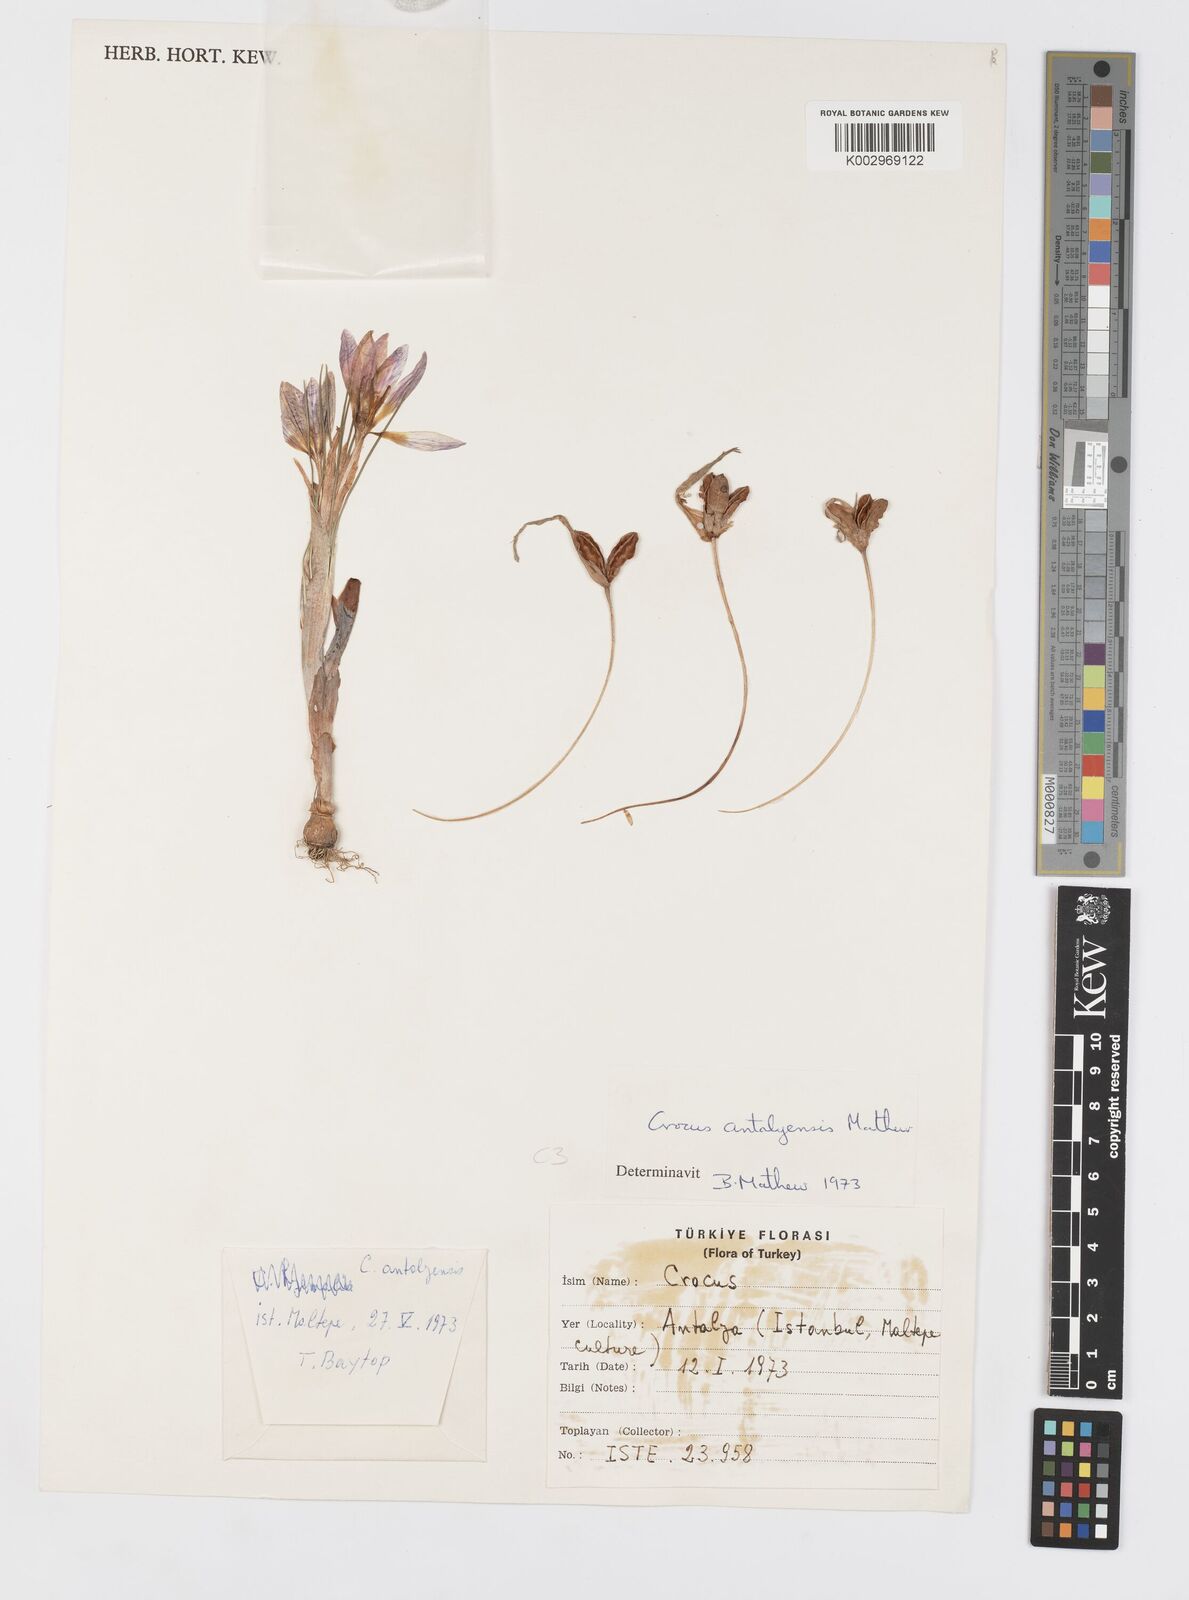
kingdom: Plantae
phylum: Tracheophyta
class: Liliopsida
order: Asparagales
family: Iridaceae
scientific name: Iridaceae
